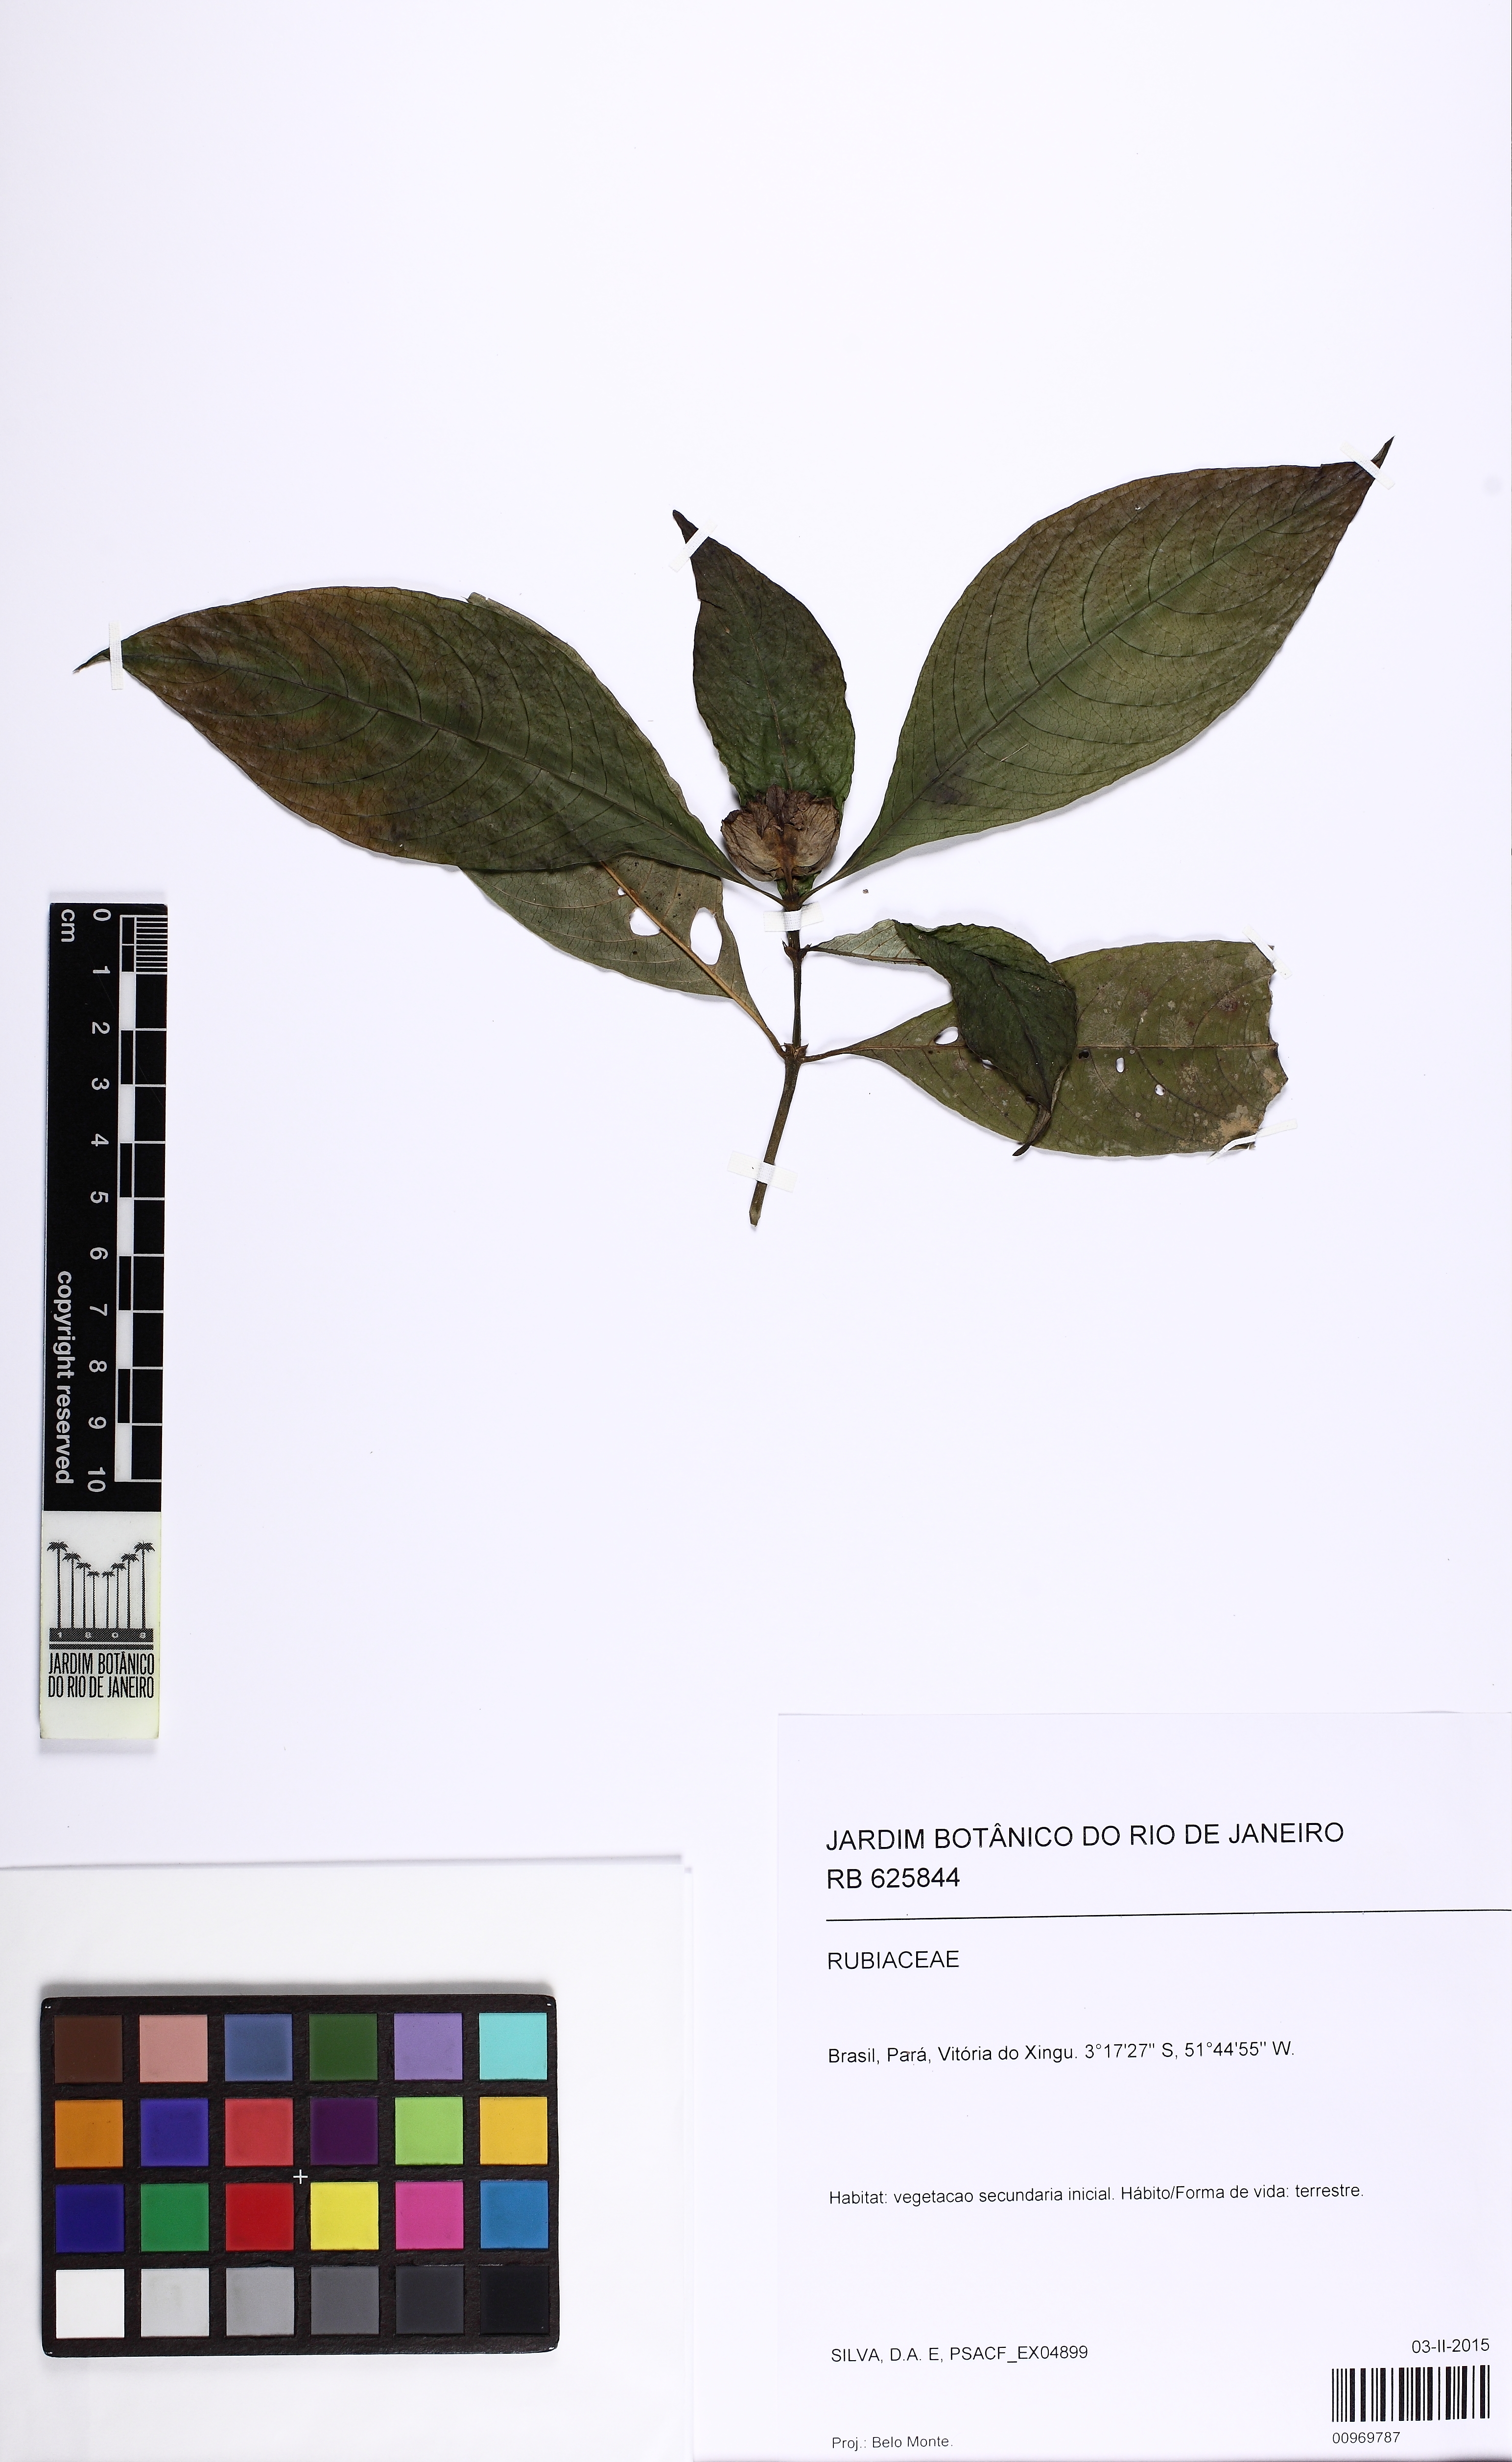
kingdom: Plantae
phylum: Tracheophyta
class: Magnoliopsida
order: Gentianales
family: Rubiaceae
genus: Palicourea
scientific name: Palicourea colorata
